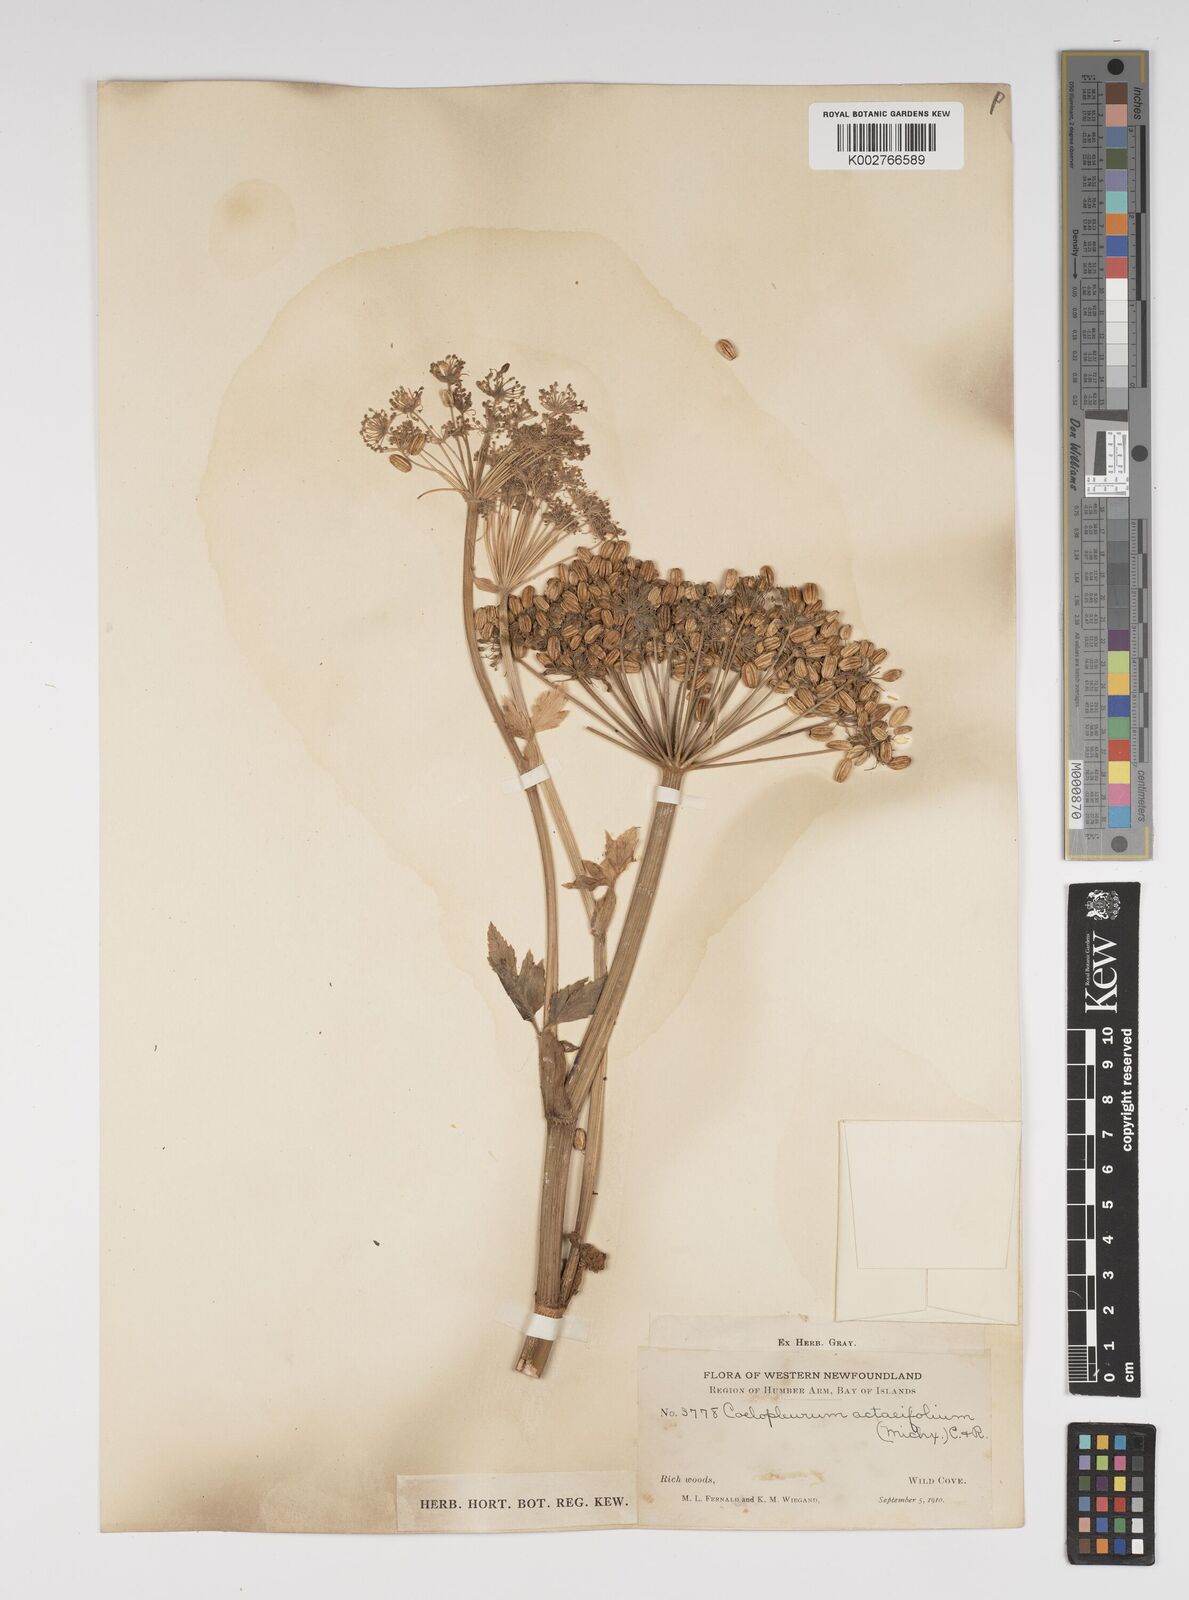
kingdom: Plantae
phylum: Tracheophyta
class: Magnoliopsida
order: Apiales
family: Apiaceae
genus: Angelica
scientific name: Angelica lucida
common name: Seabeach angelica
